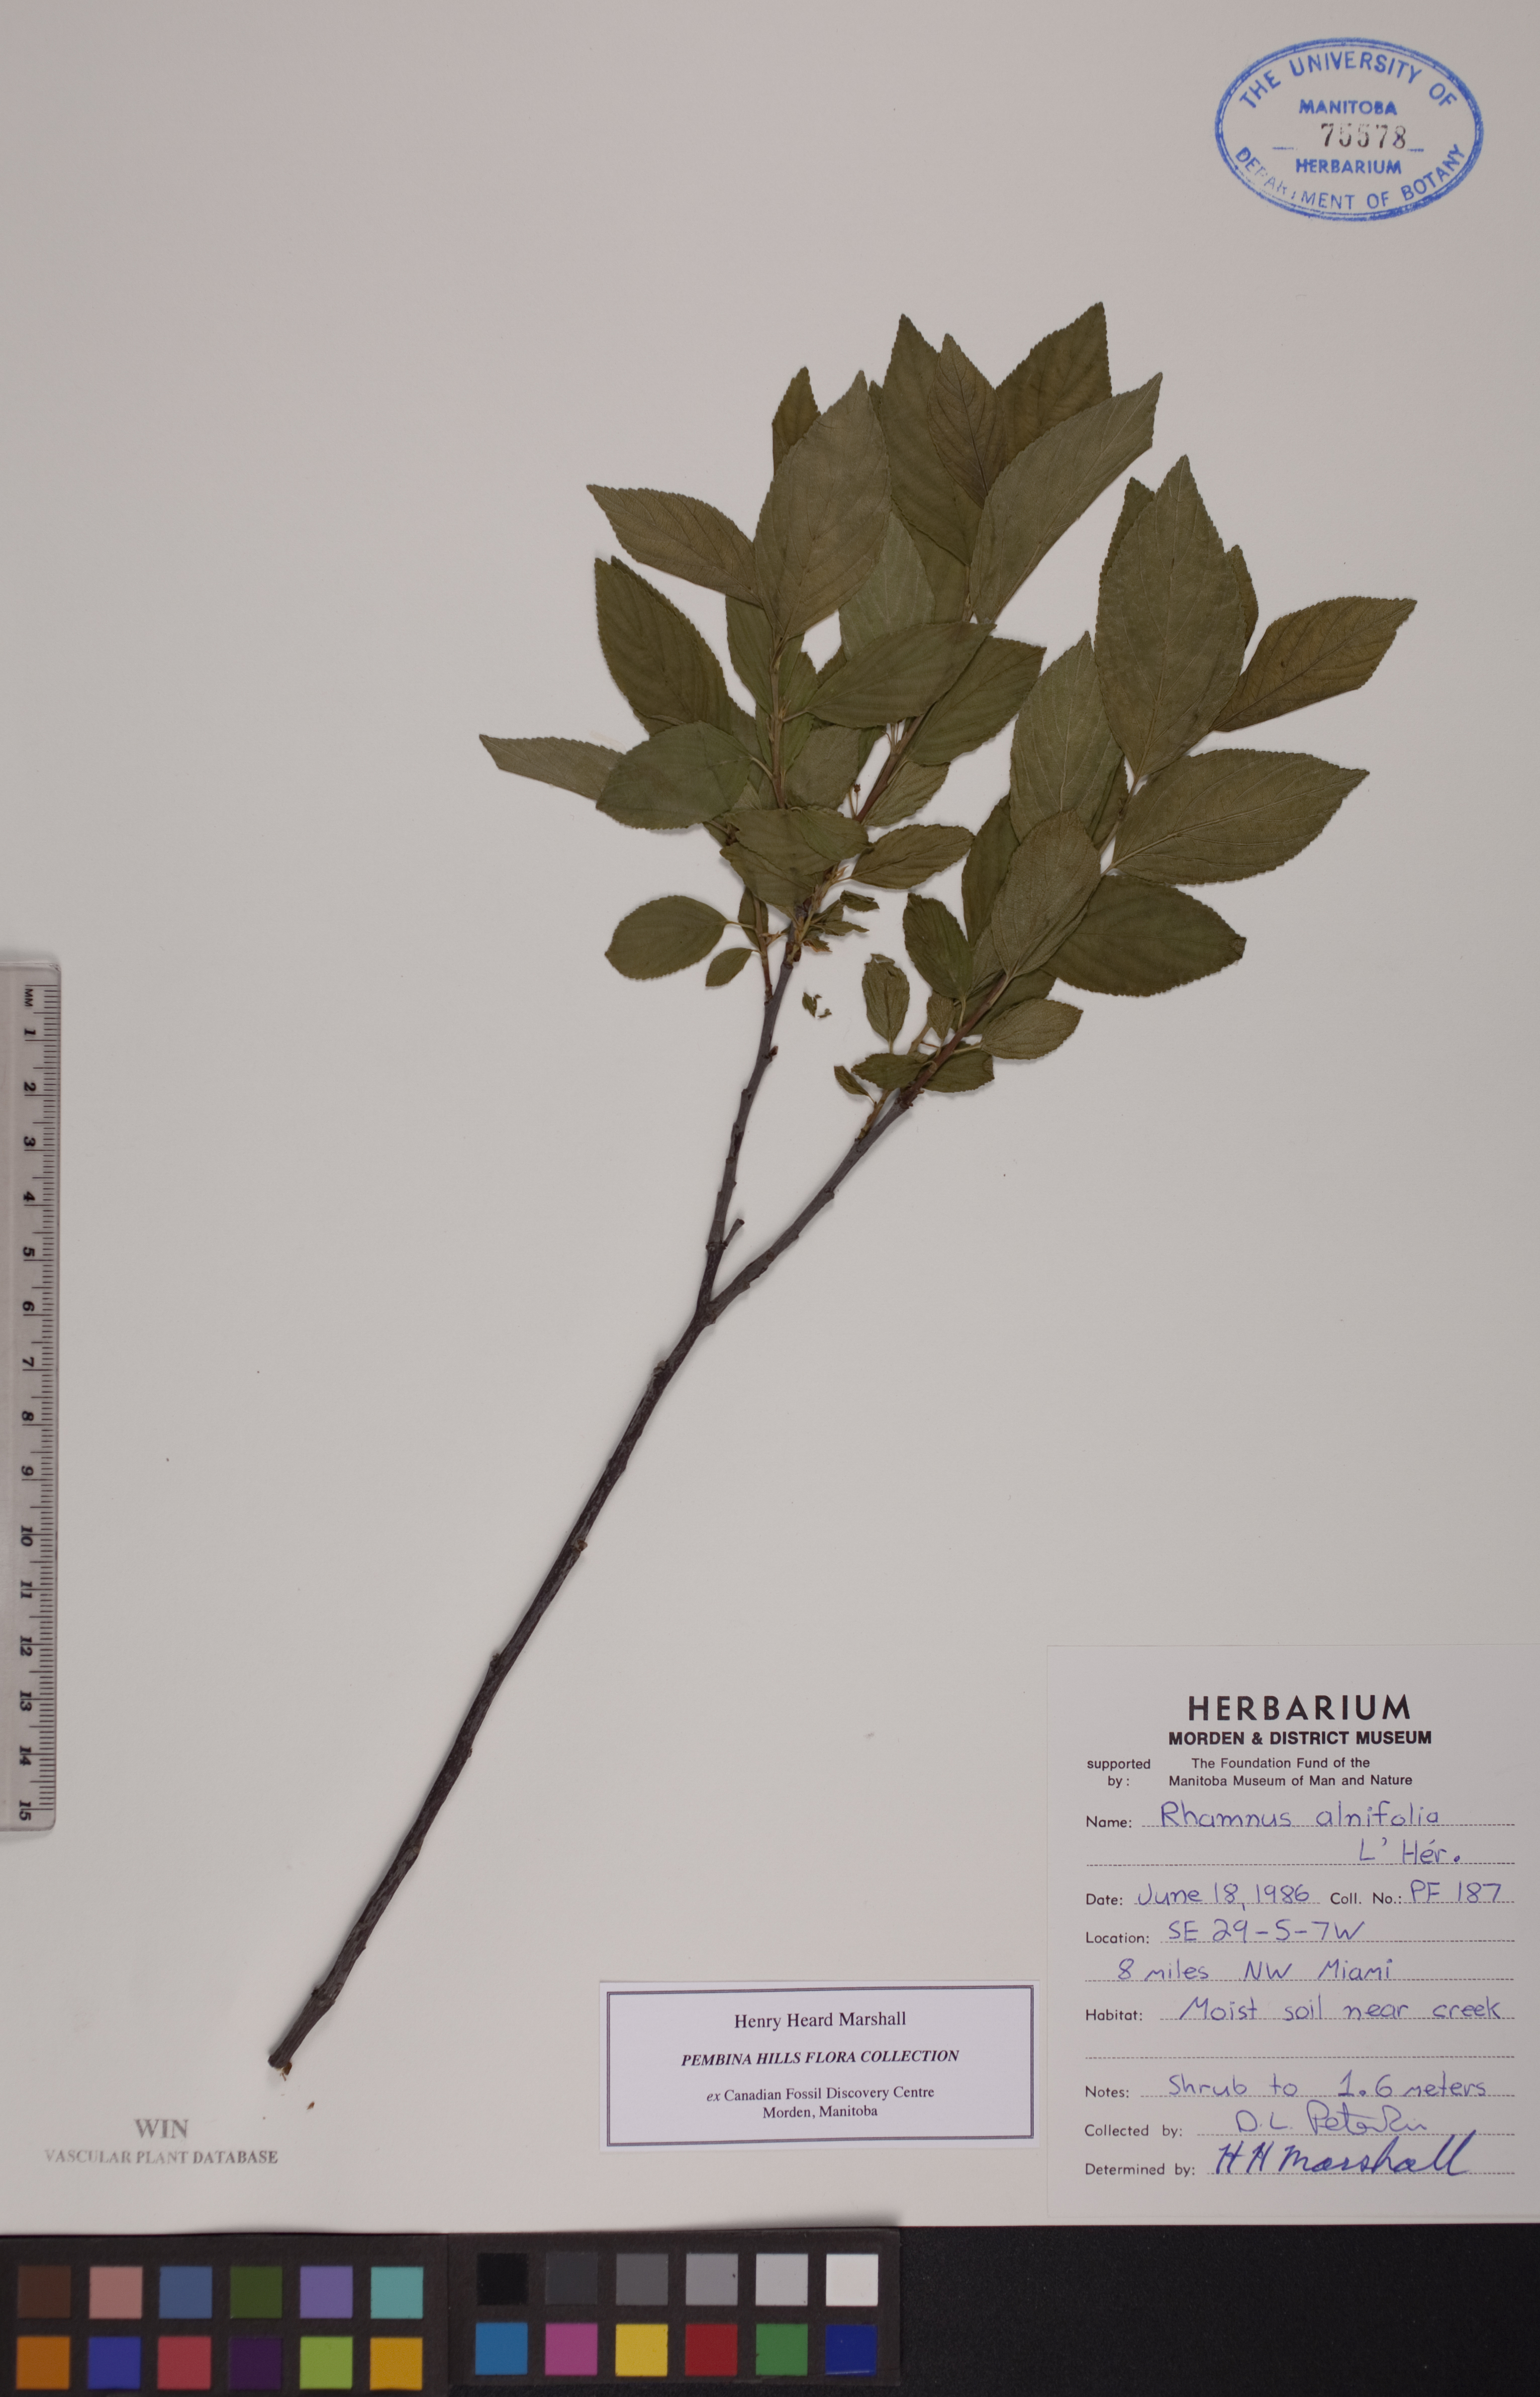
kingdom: Plantae
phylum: Tracheophyta
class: Magnoliopsida
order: Rosales
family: Rhamnaceae
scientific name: Rhamnaceae
